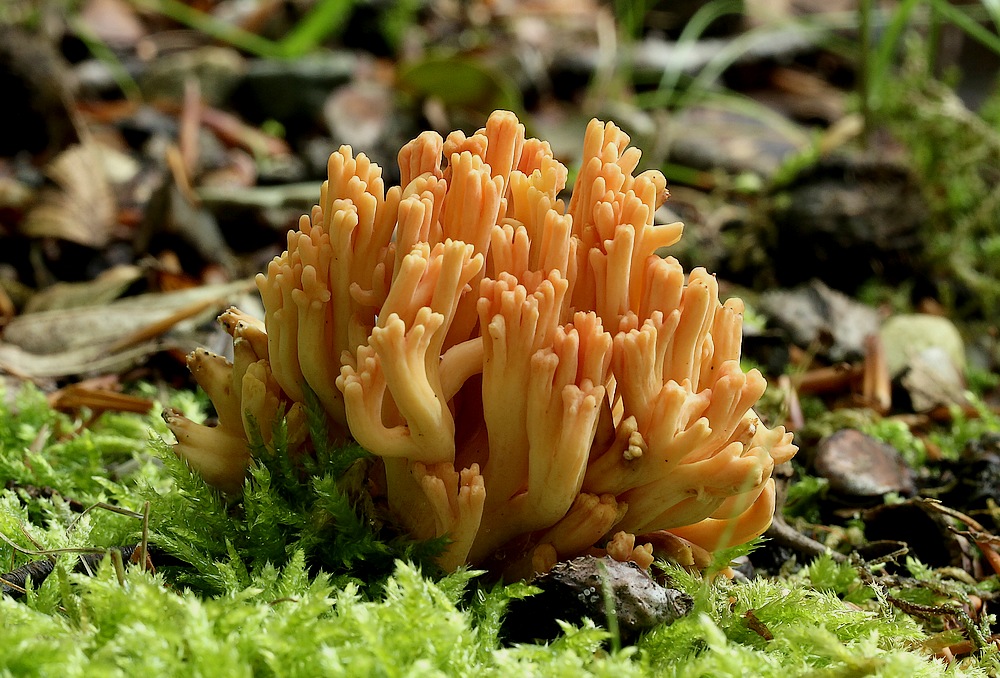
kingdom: Fungi
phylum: Basidiomycota
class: Agaricomycetes
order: Gomphales
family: Gomphaceae
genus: Ramaria
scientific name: Ramaria fagetorum
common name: abrikos-koralsvamp
